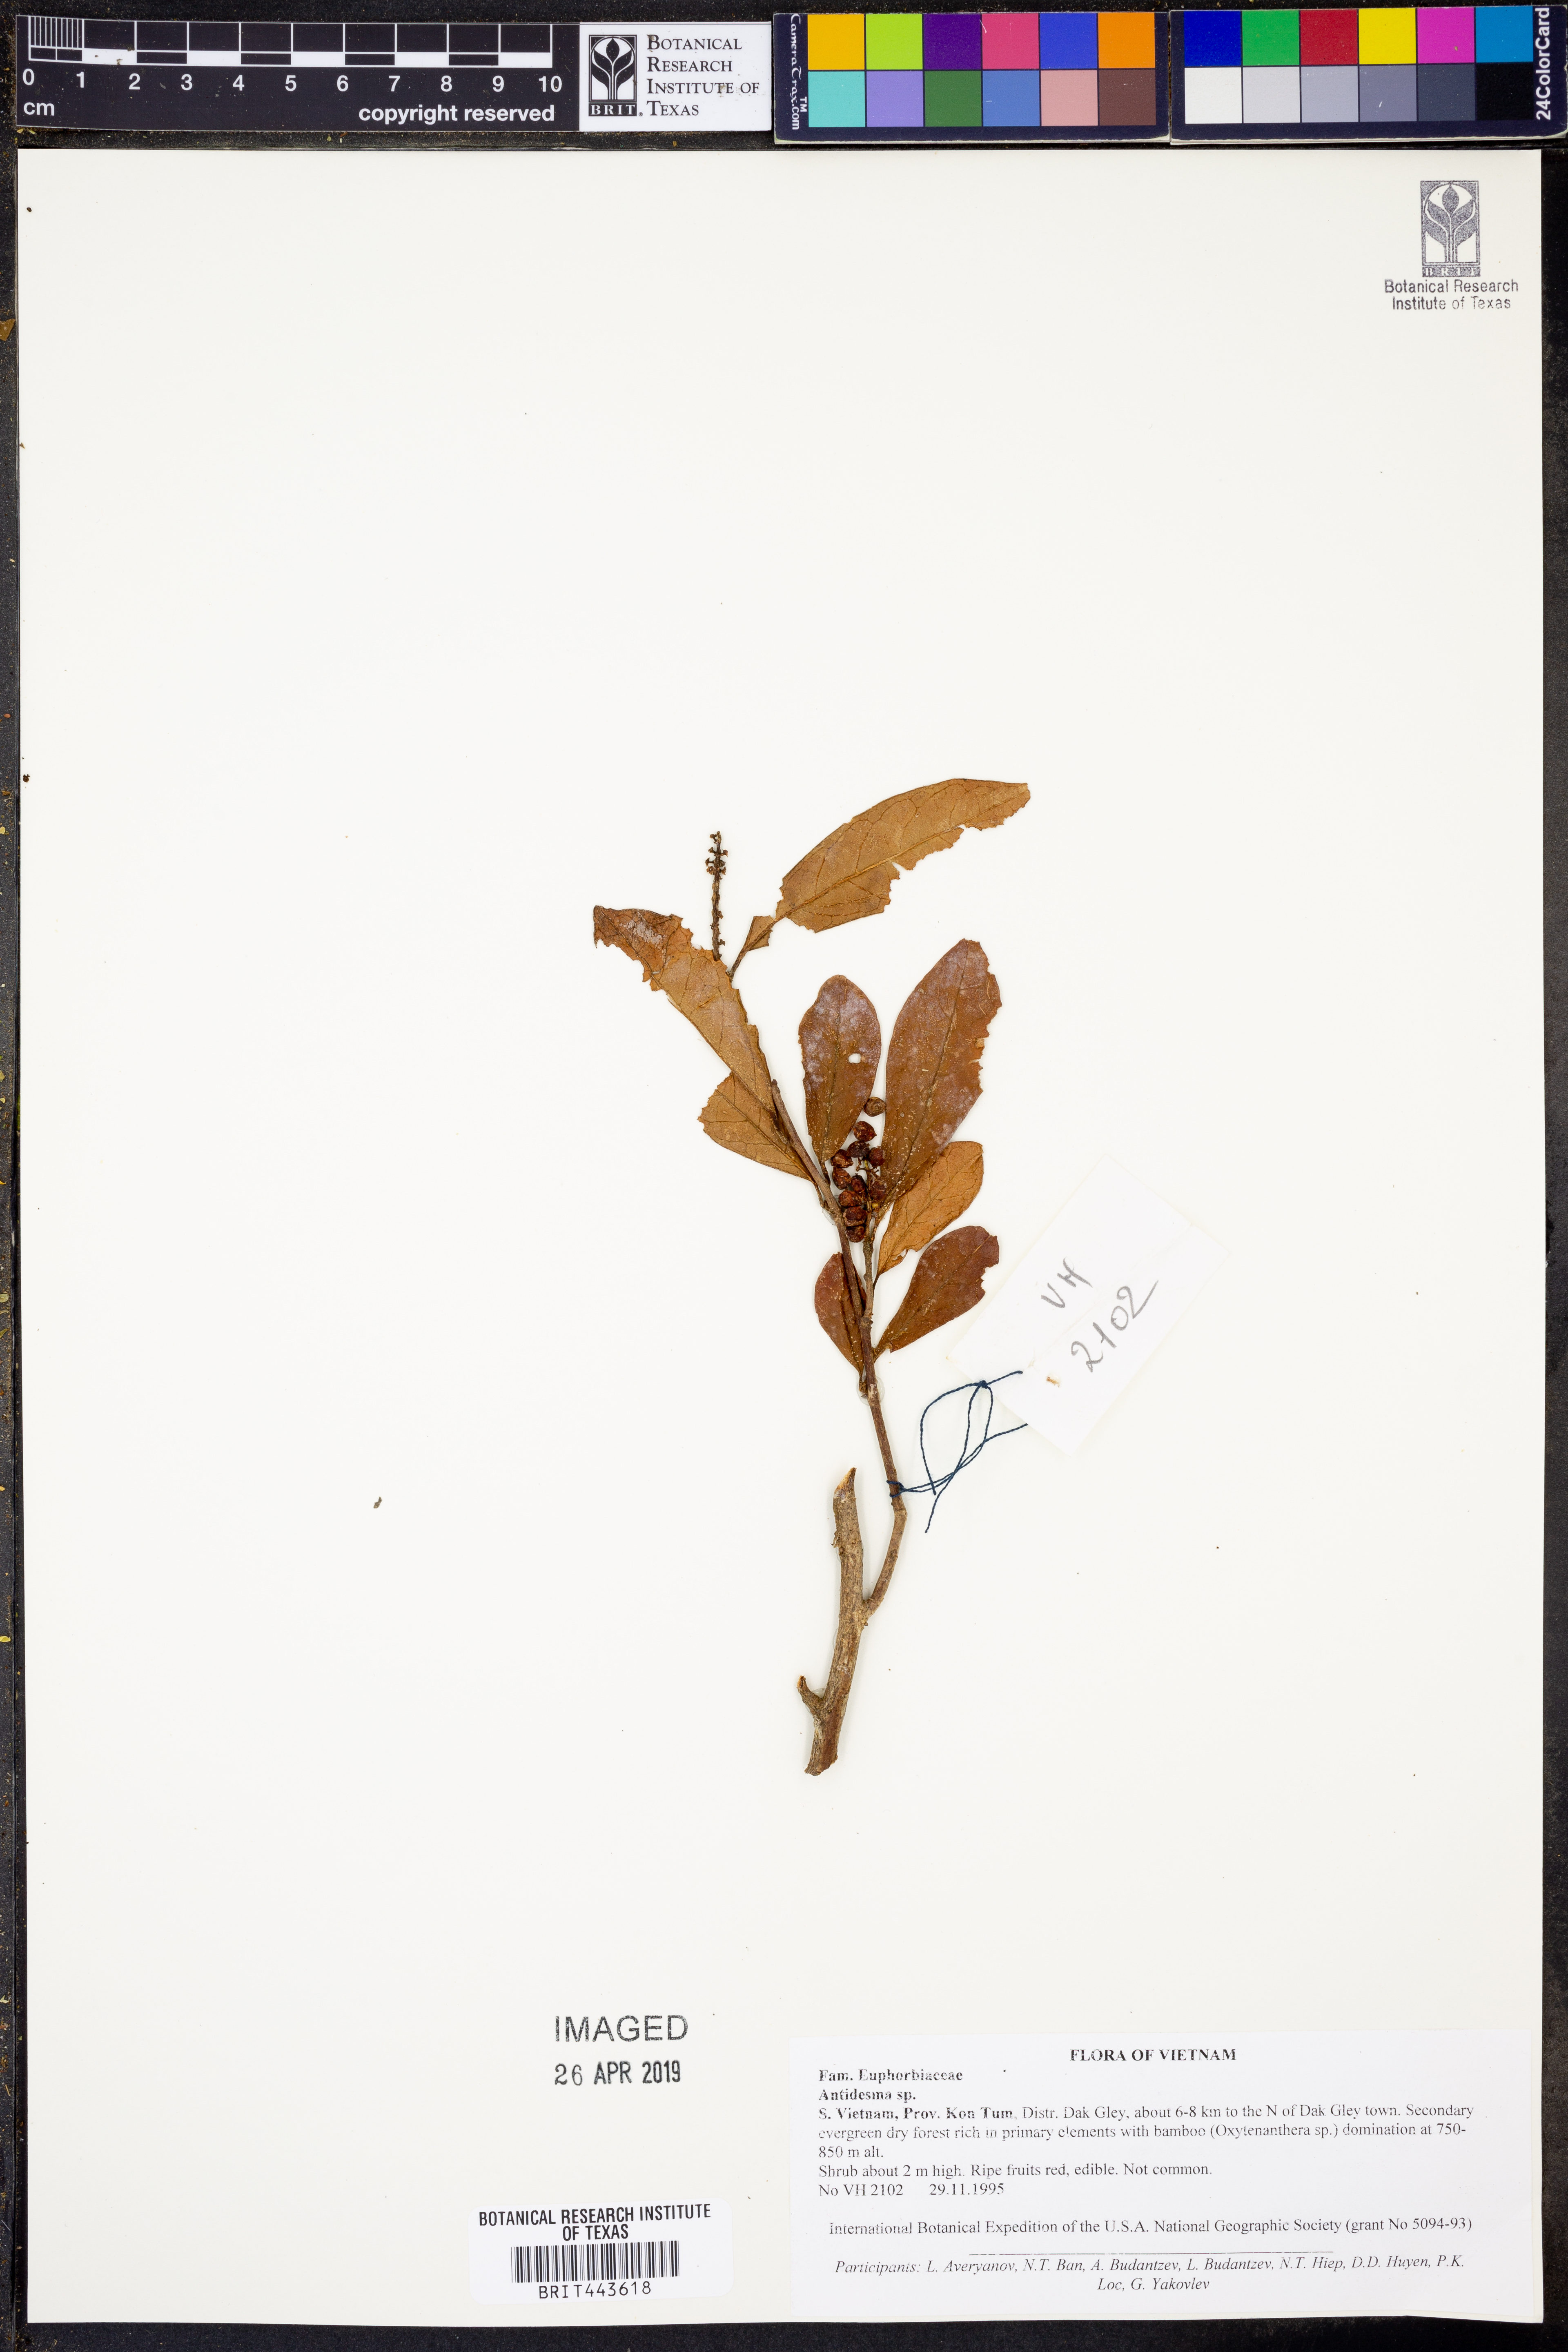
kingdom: Plantae
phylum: Tracheophyta
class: Magnoliopsida
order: Malpighiales
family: Phyllanthaceae
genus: Antidesma
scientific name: Antidesma
